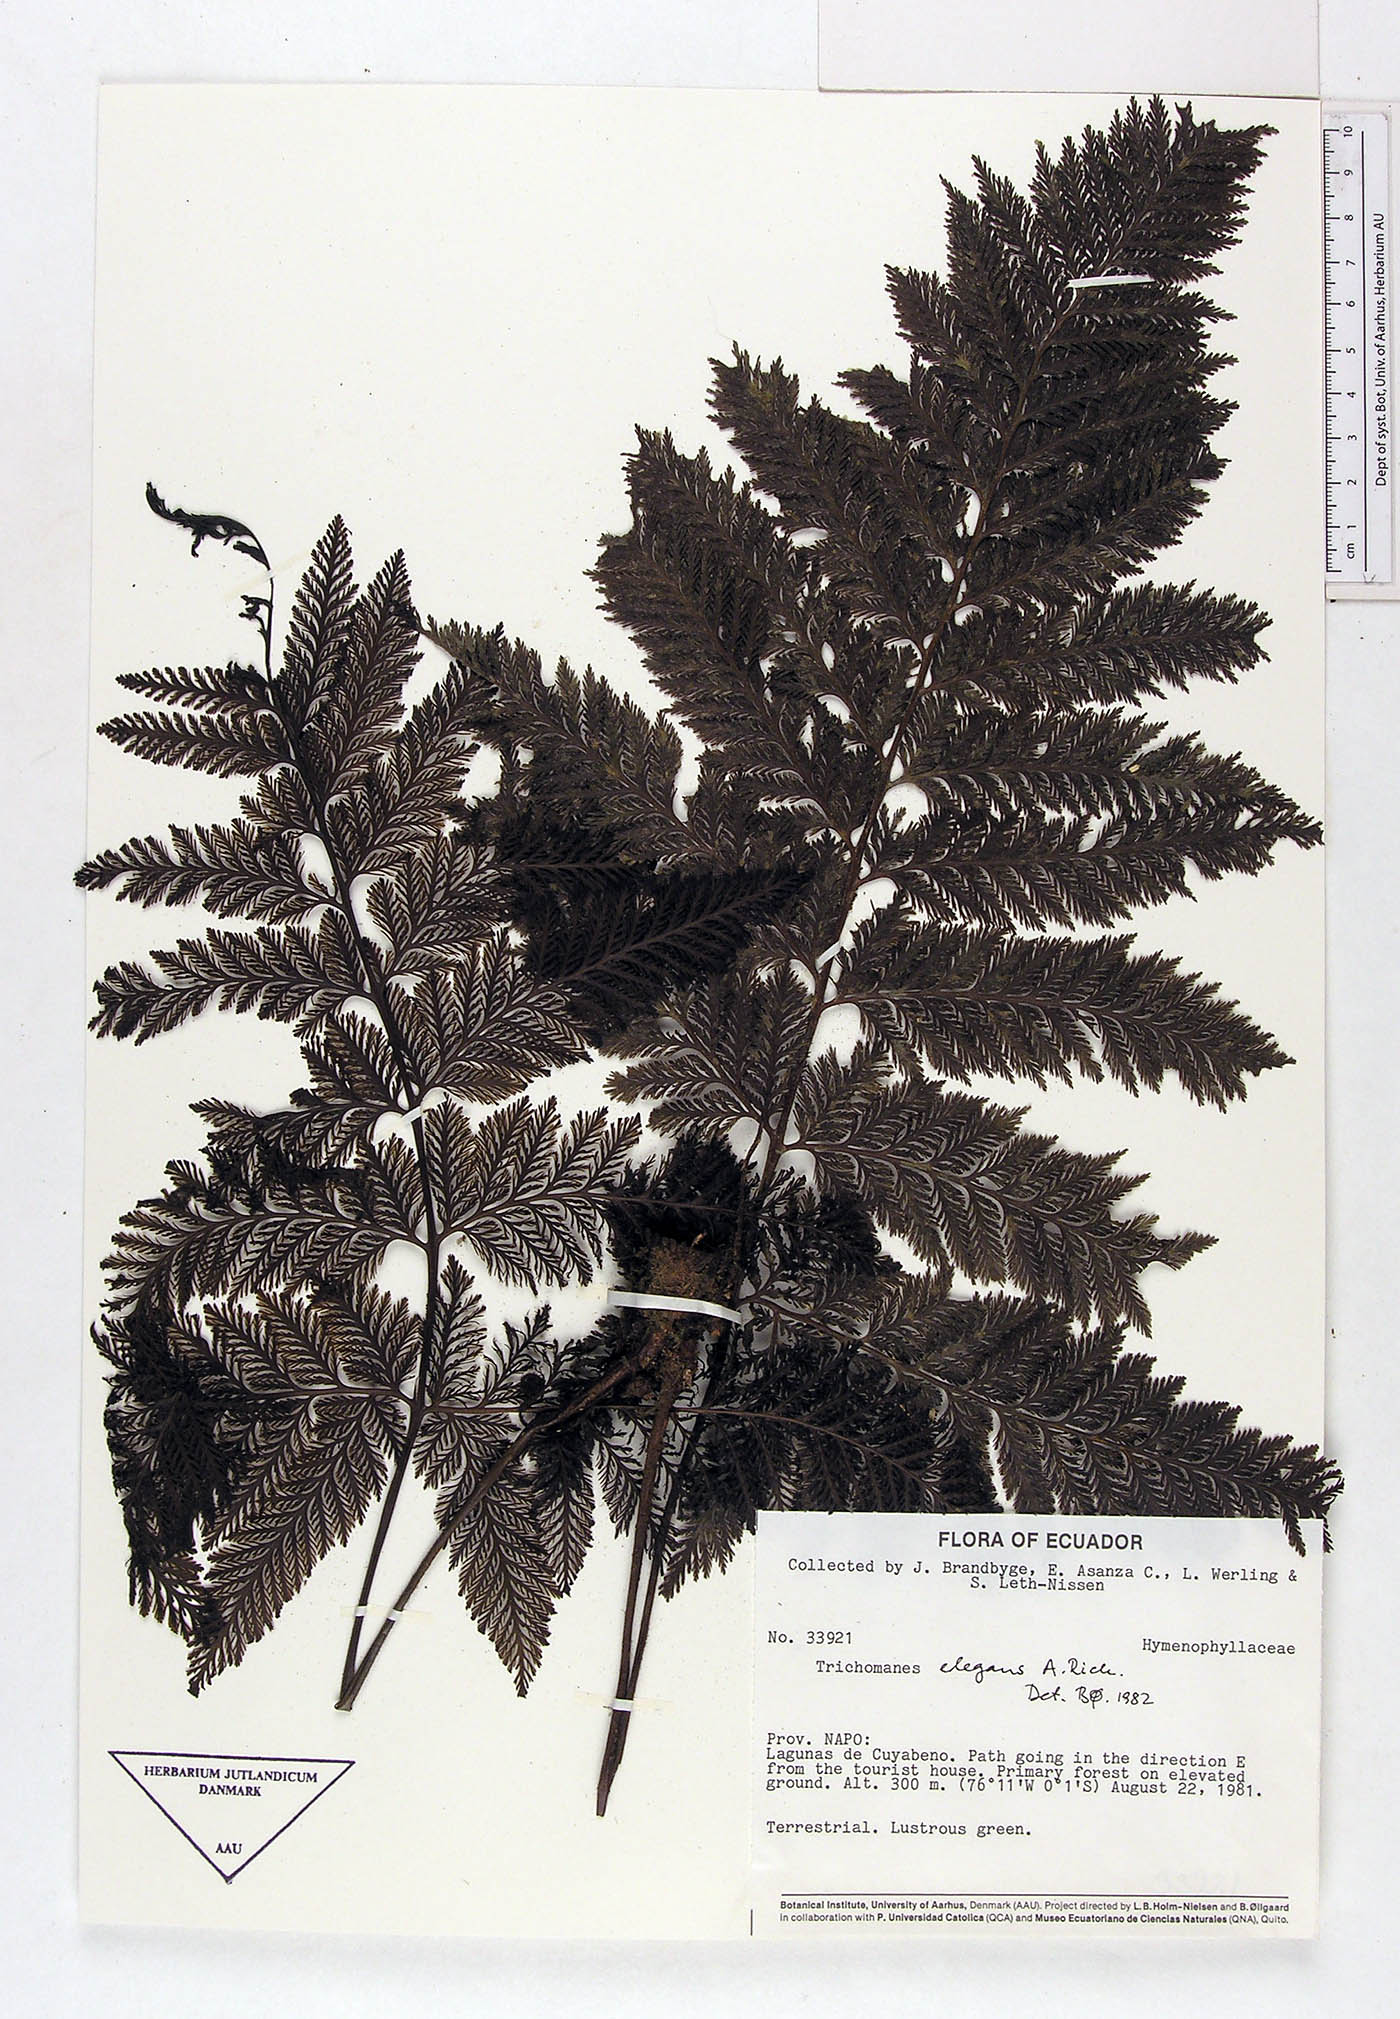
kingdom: Plantae
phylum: Tracheophyta
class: Polypodiopsida
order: Hymenophyllales
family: Hymenophyllaceae
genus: Trichomanes
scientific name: Trichomanes elegans
